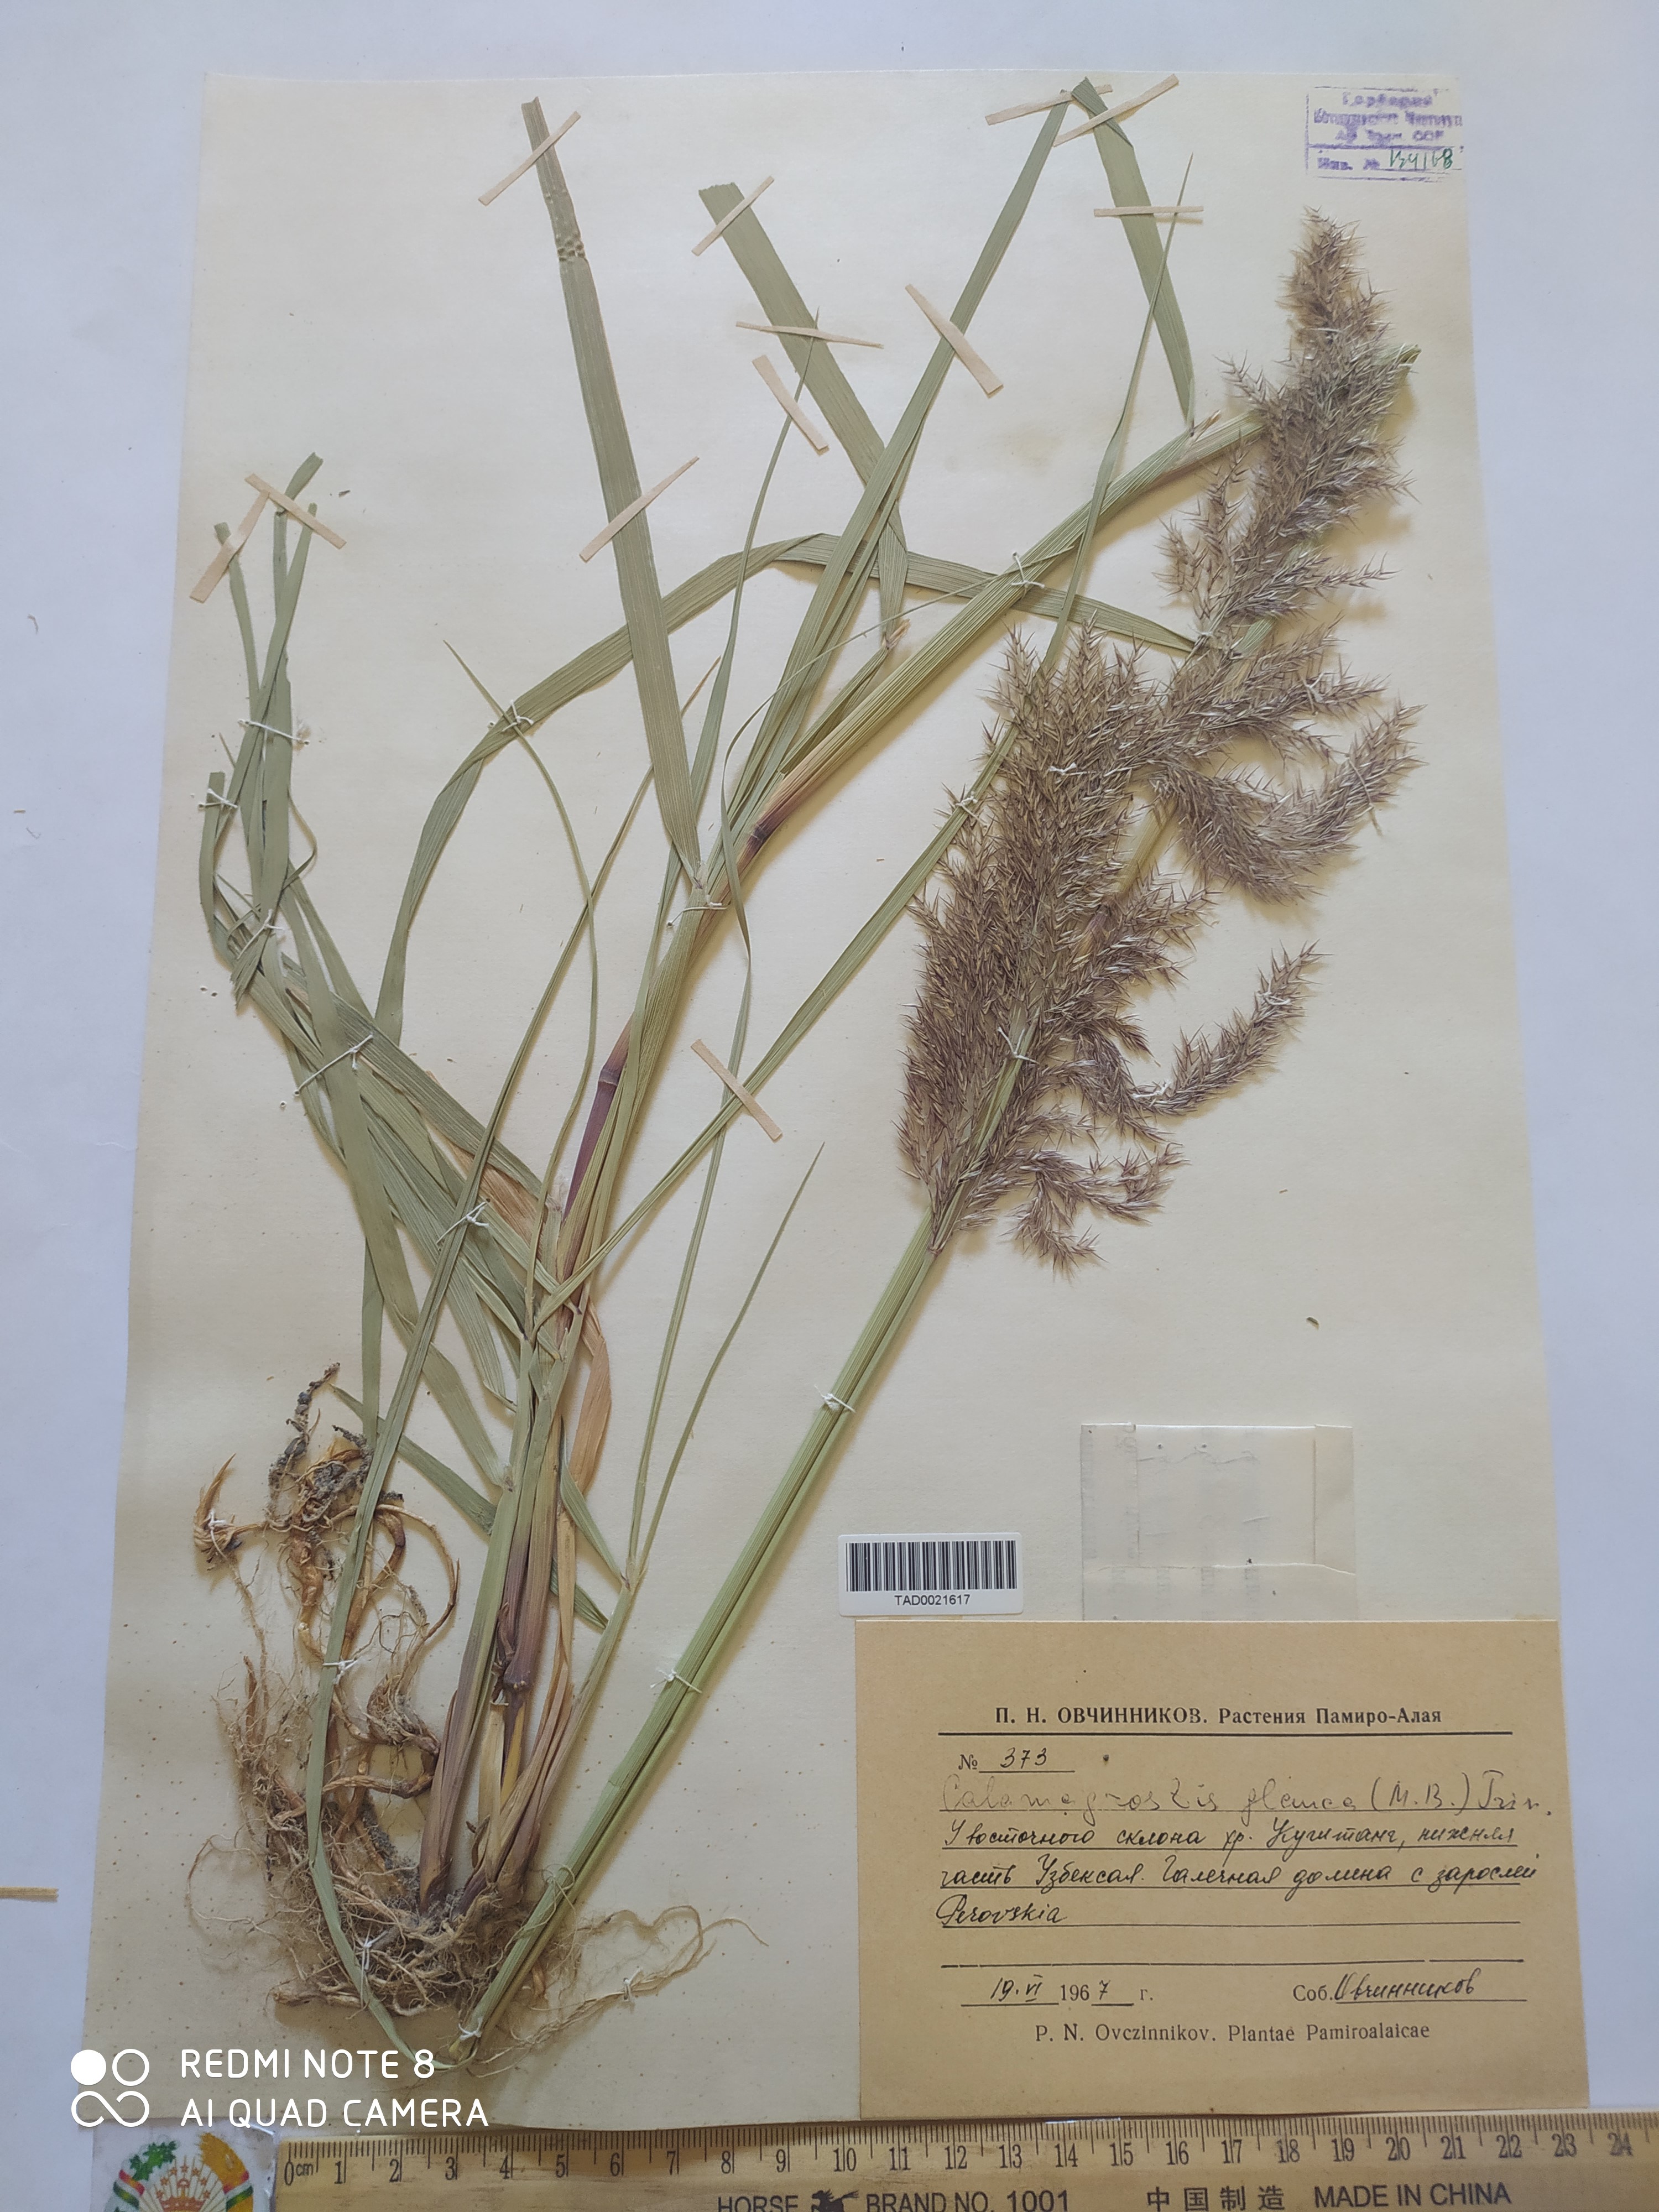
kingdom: Plantae
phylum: Tracheophyta
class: Liliopsida
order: Poales
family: Poaceae
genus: Calamagrostis
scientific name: Calamagrostis pseudophragmites
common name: Coastal small-reed
